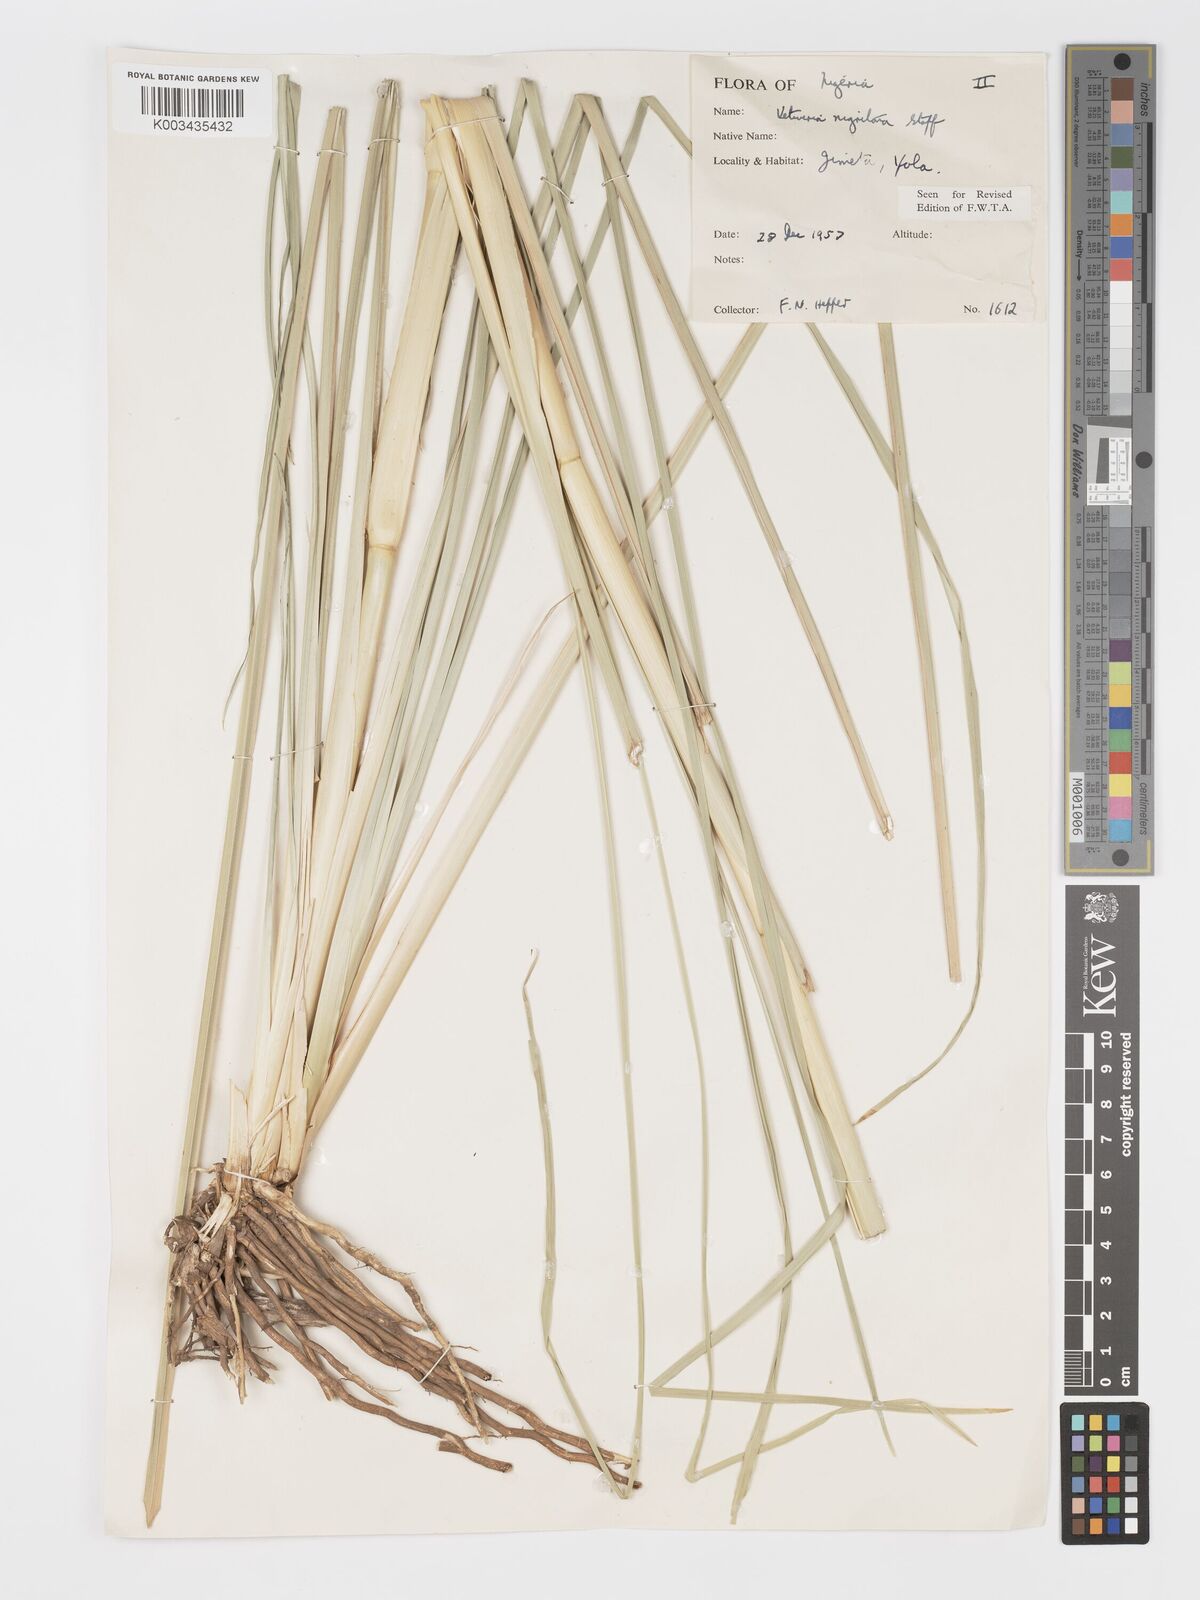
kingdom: Plantae
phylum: Tracheophyta
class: Liliopsida
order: Poales
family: Poaceae
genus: Chrysopogon
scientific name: Chrysopogon nigritanus
